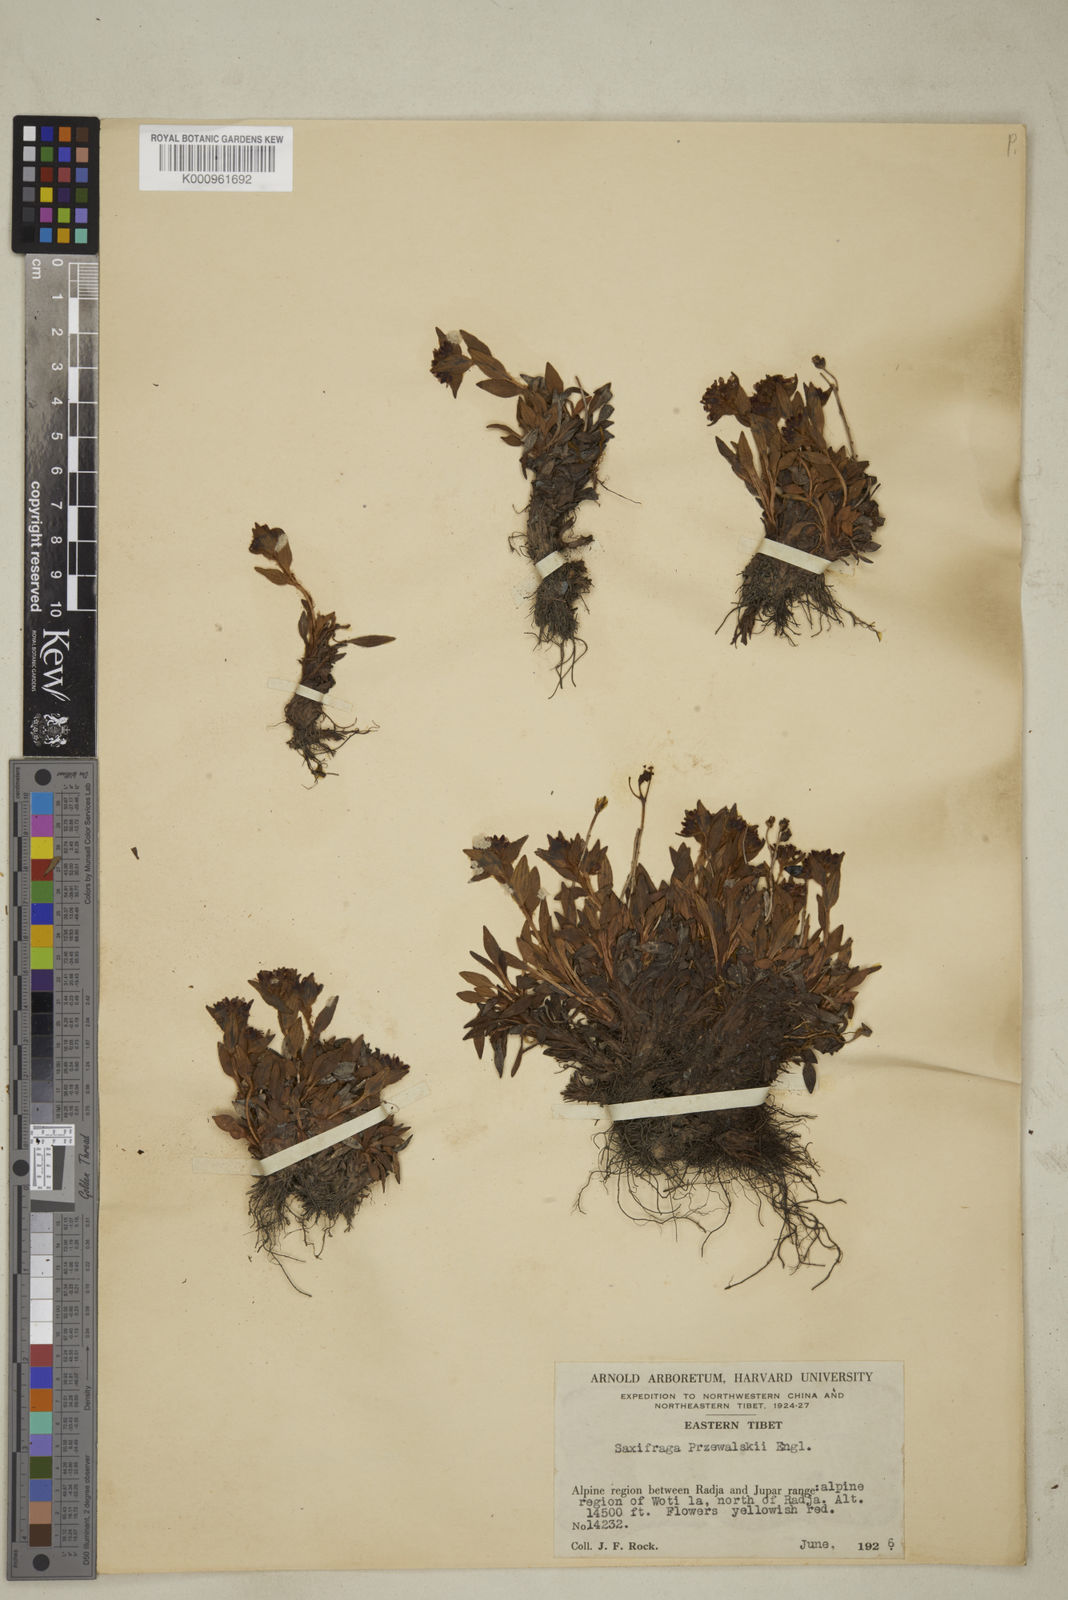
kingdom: Plantae
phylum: Tracheophyta
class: Magnoliopsida
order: Saxifragales
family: Saxifragaceae
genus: Saxifraga
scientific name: Saxifraga
